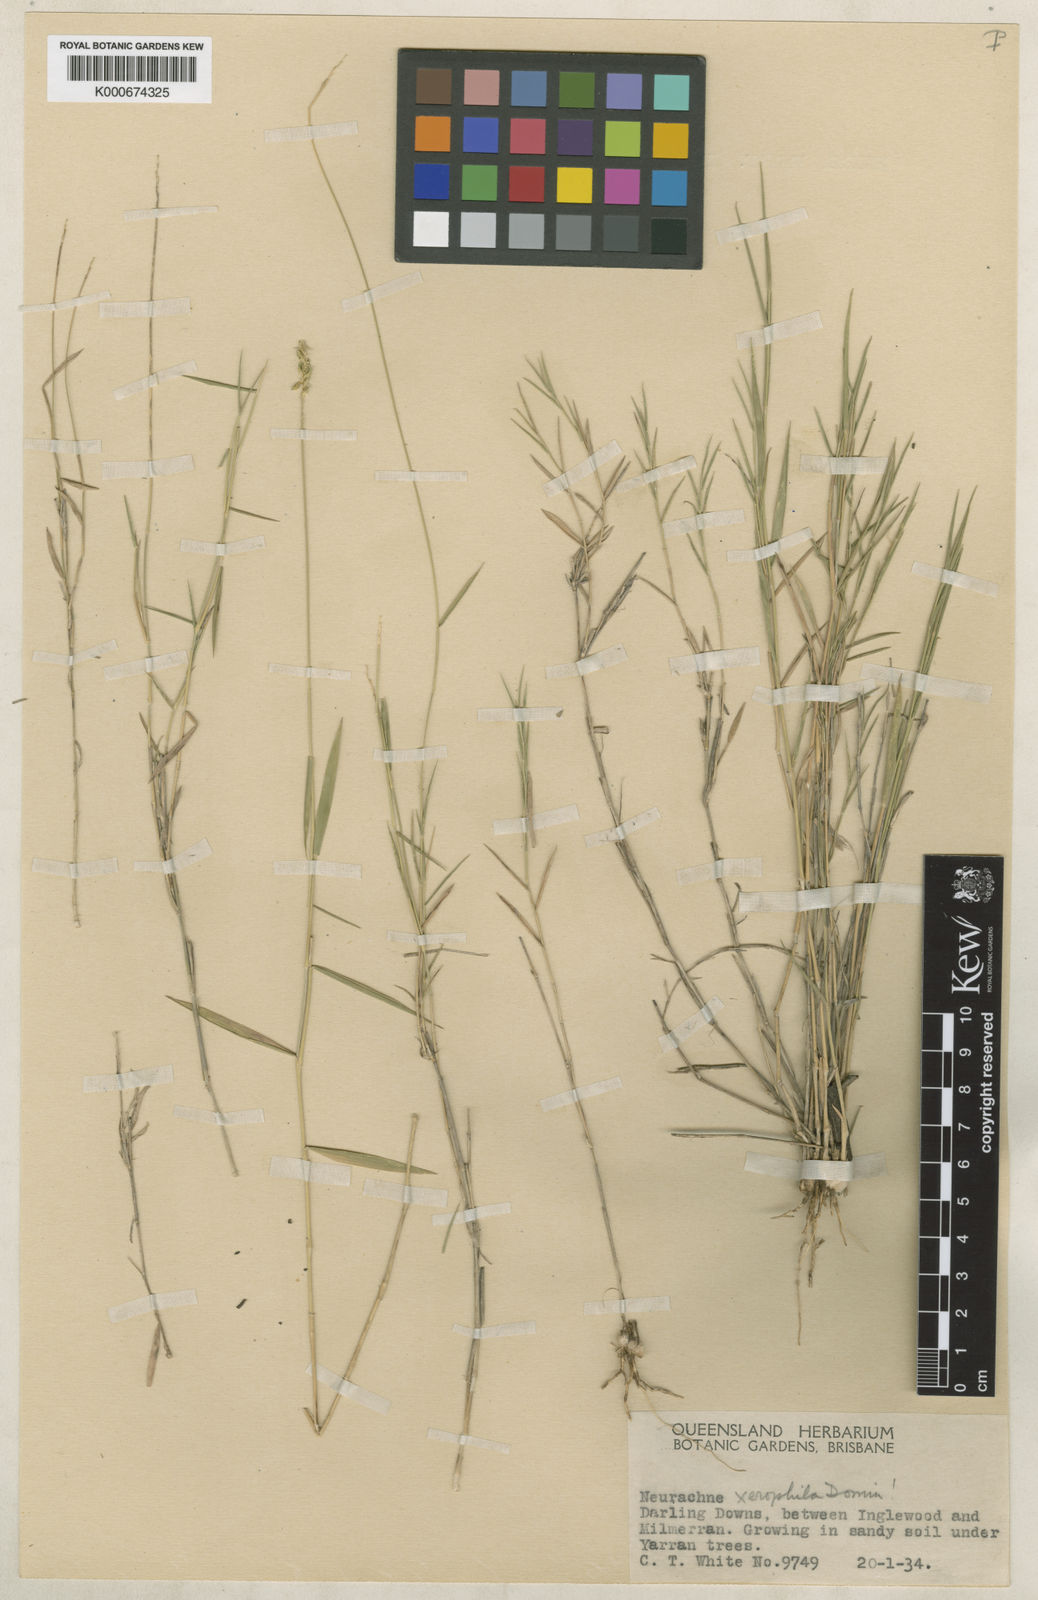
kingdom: Plantae
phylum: Tracheophyta
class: Liliopsida
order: Poales
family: Poaceae
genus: Neurachne
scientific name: Neurachne
